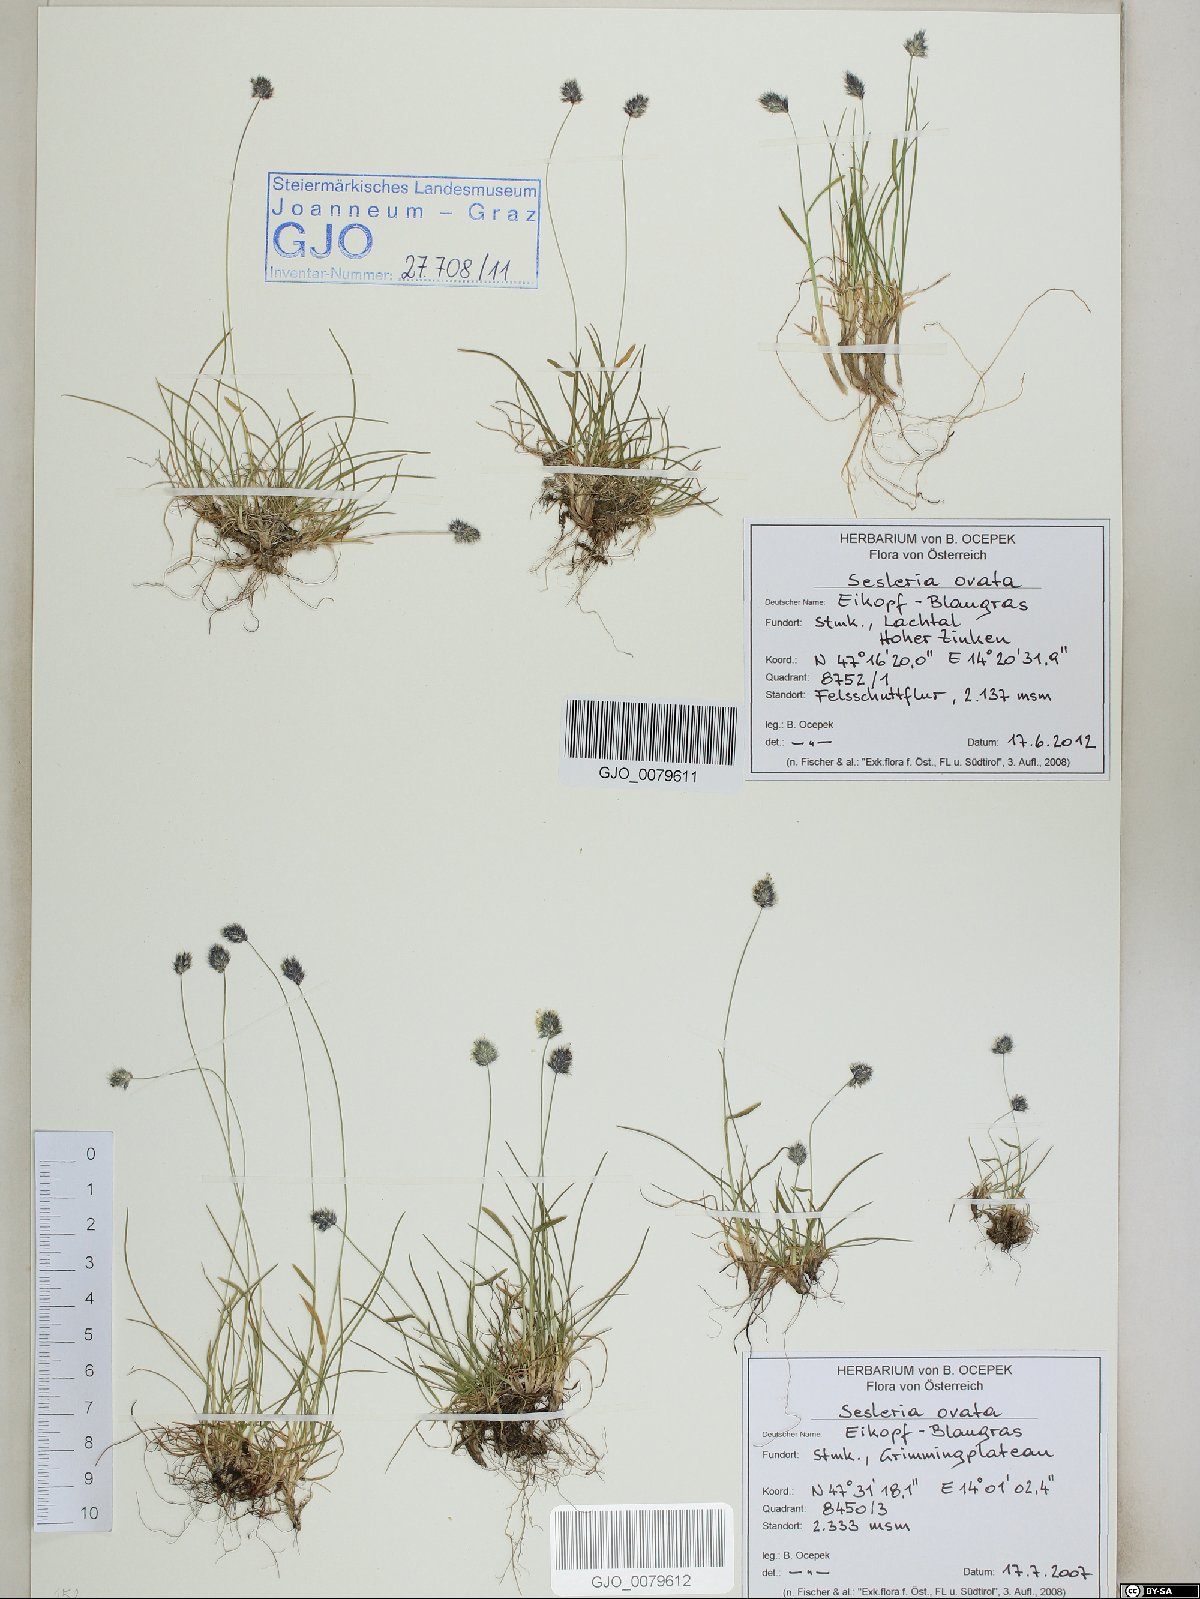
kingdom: Plantae
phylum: Tracheophyta
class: Liliopsida
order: Poales
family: Poaceae
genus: Psilathera
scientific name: Psilathera ovata
